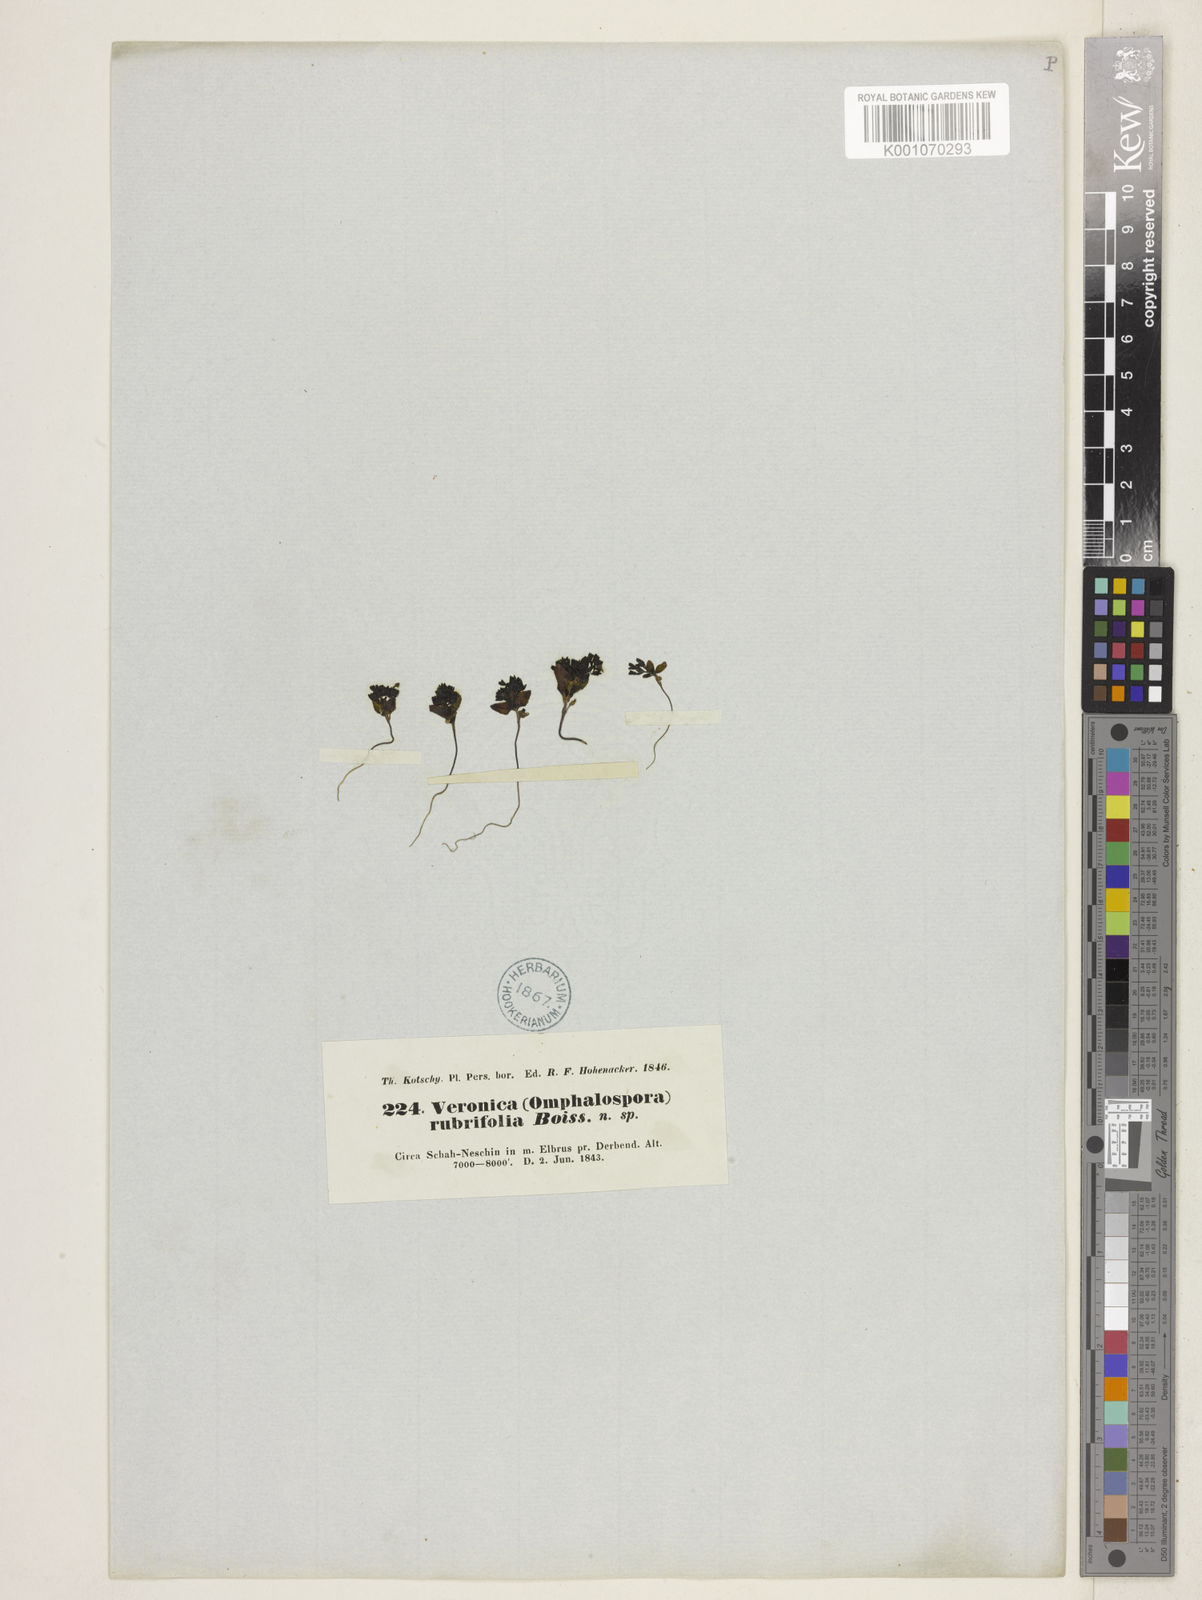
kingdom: Plantae
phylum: Tracheophyta
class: Magnoliopsida
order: Lamiales
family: Plantaginaceae
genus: Veronica
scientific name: Veronica rubrifolia
